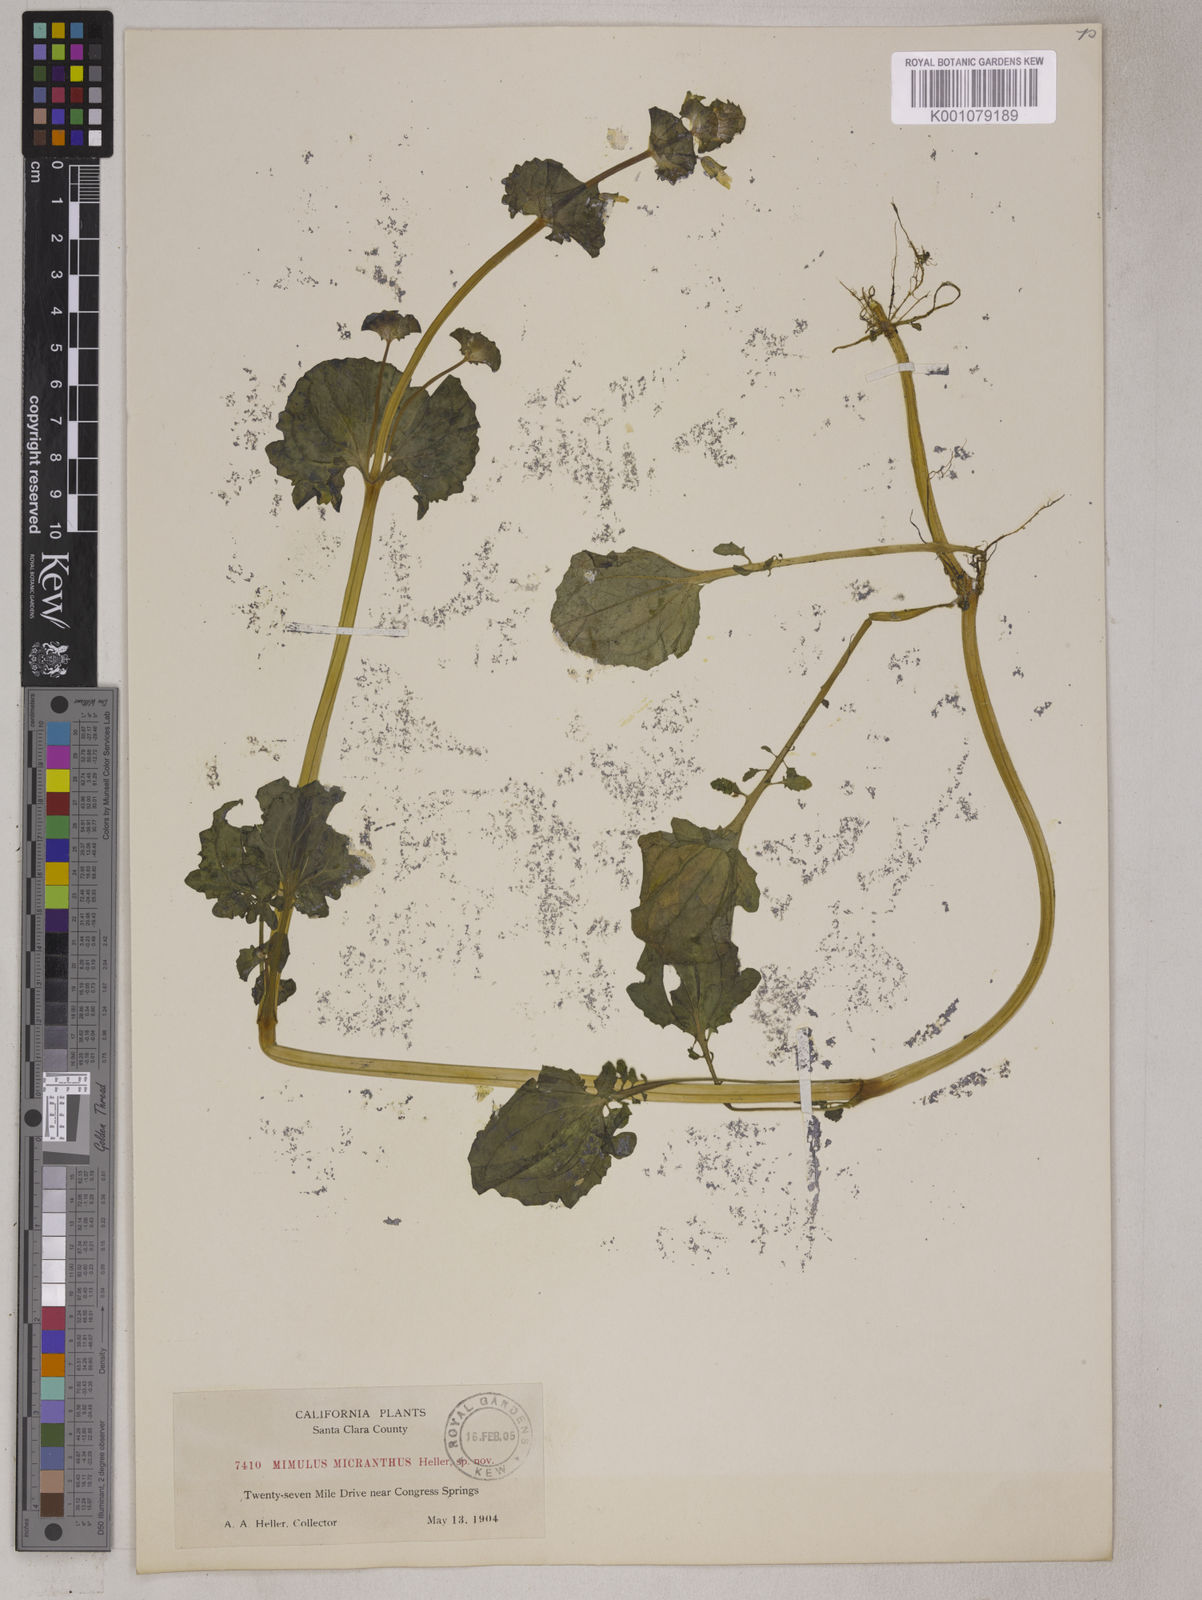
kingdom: Plantae
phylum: Tracheophyta
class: Magnoliopsida
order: Lamiales
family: Phrymaceae
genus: Erythranthe
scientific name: Erythranthe arvensis
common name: Field monkeyflower
